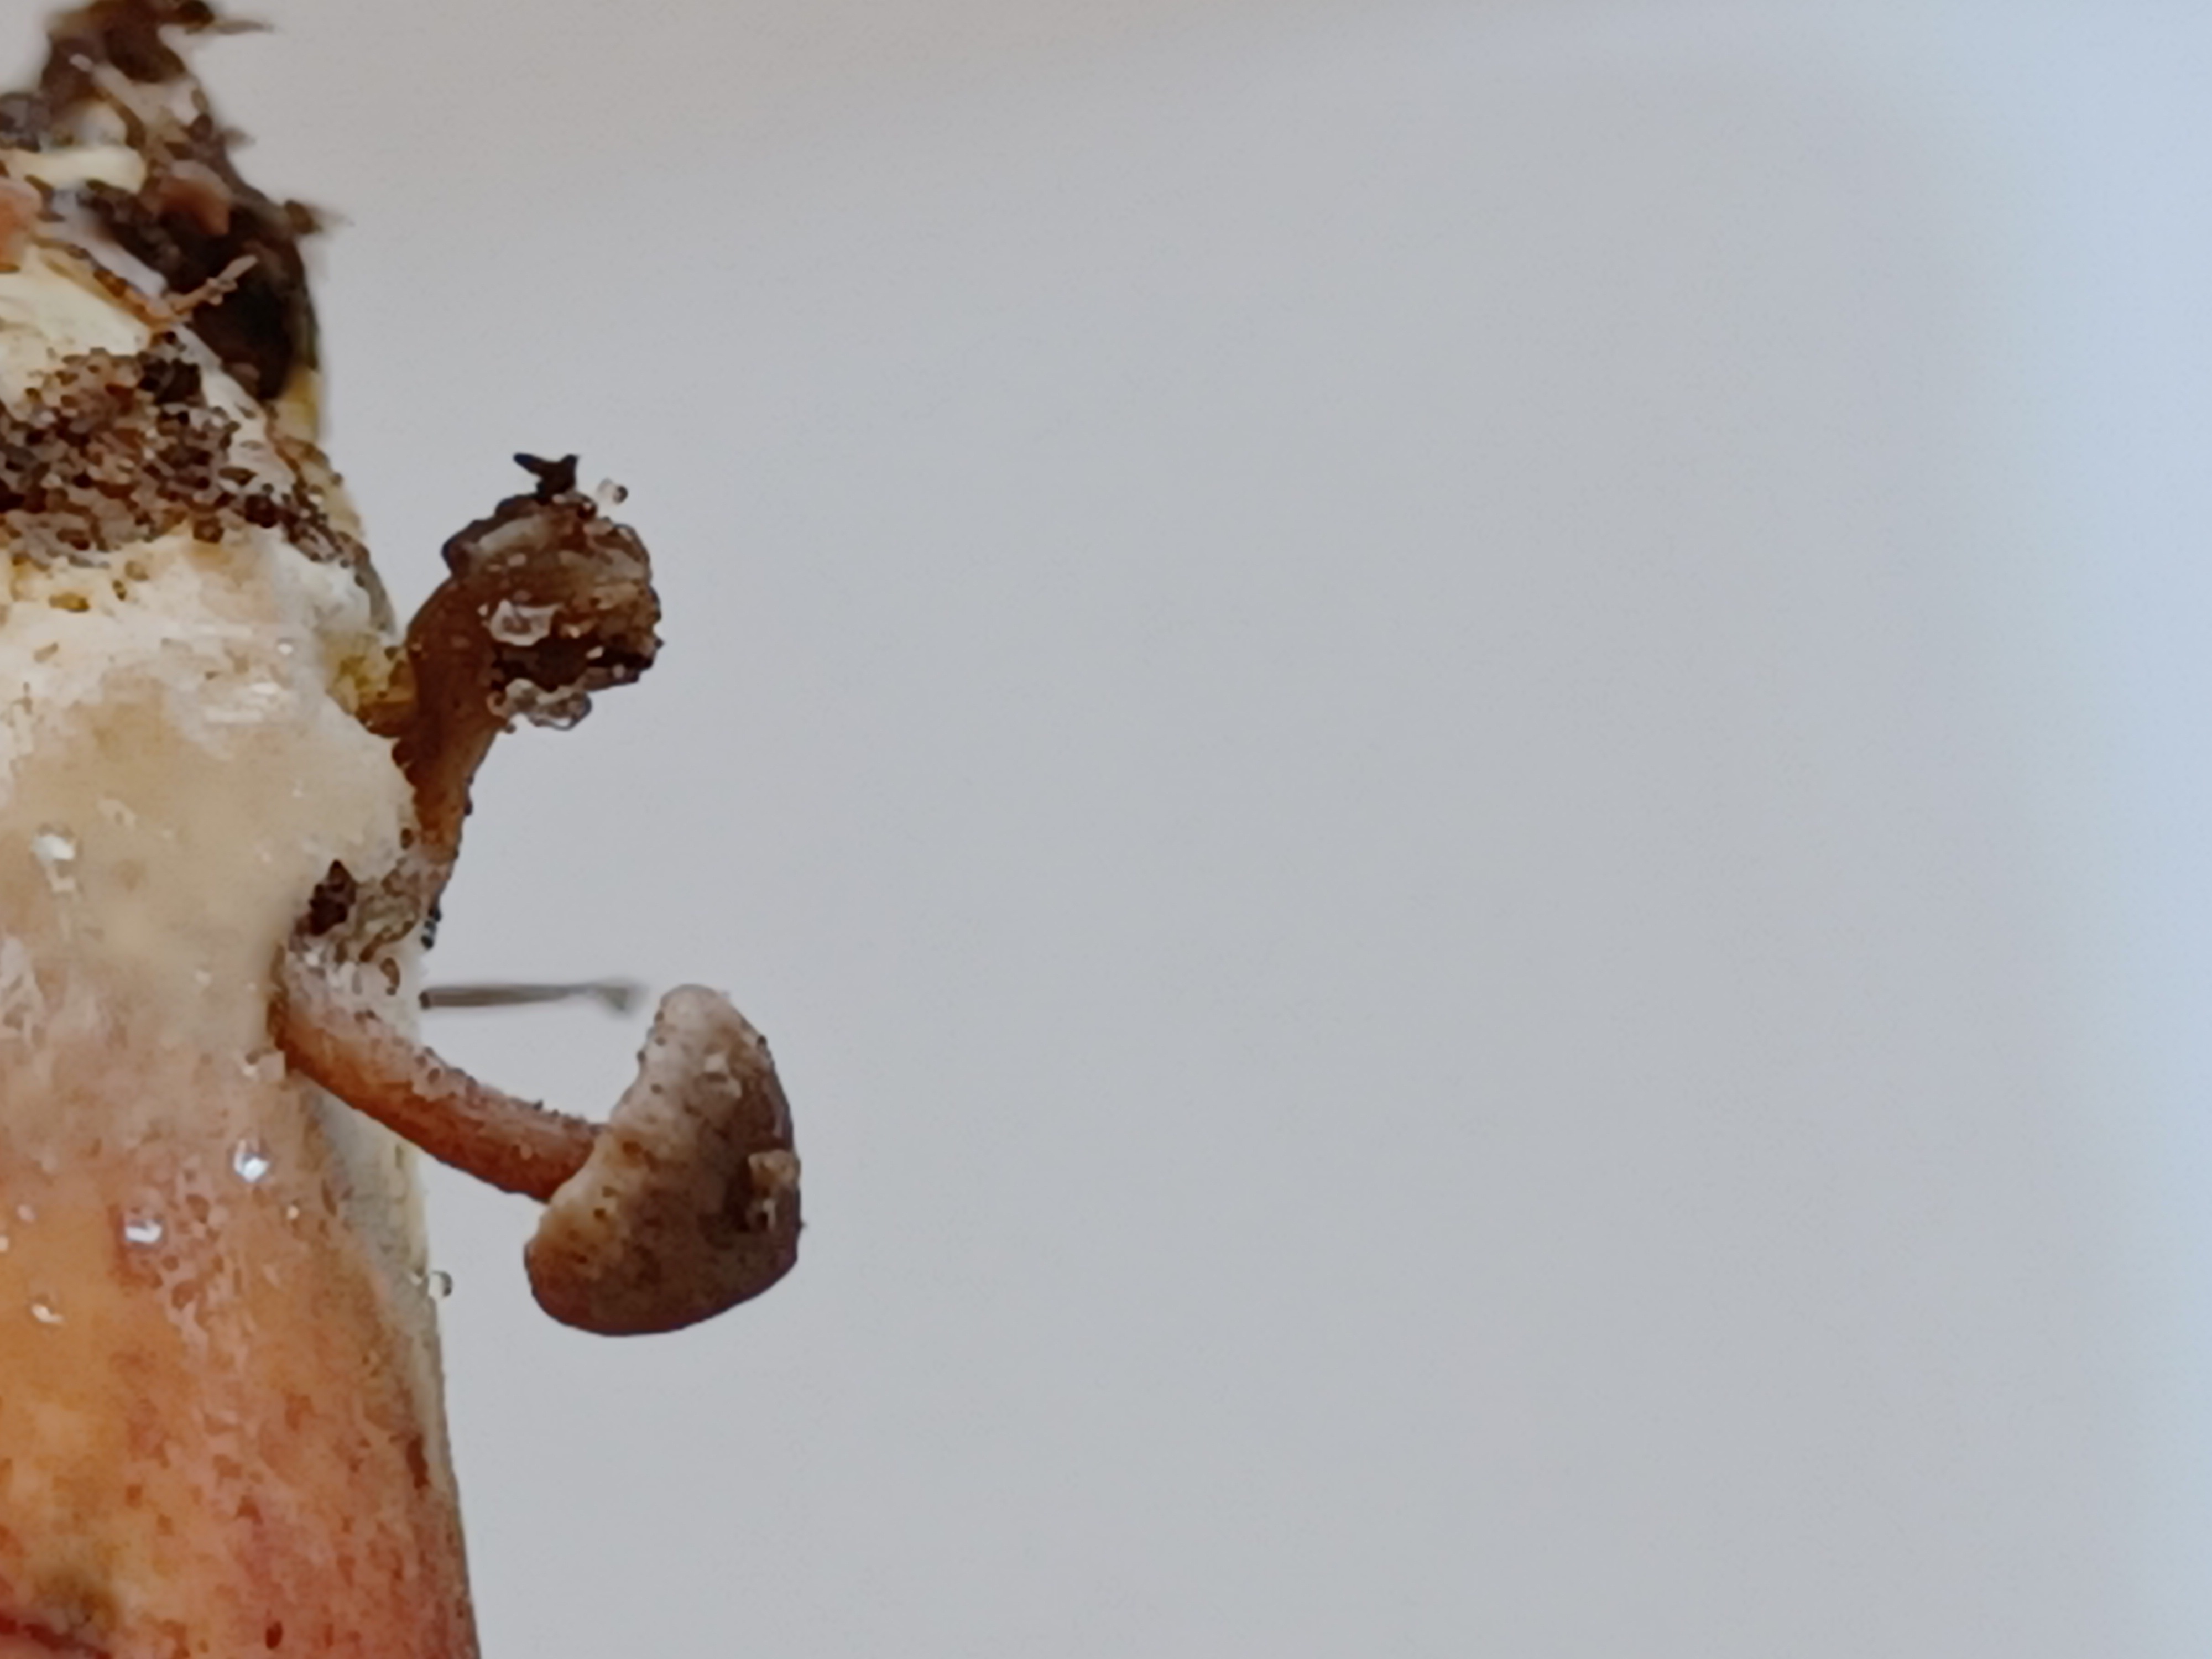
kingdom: Fungi
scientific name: Fungi
